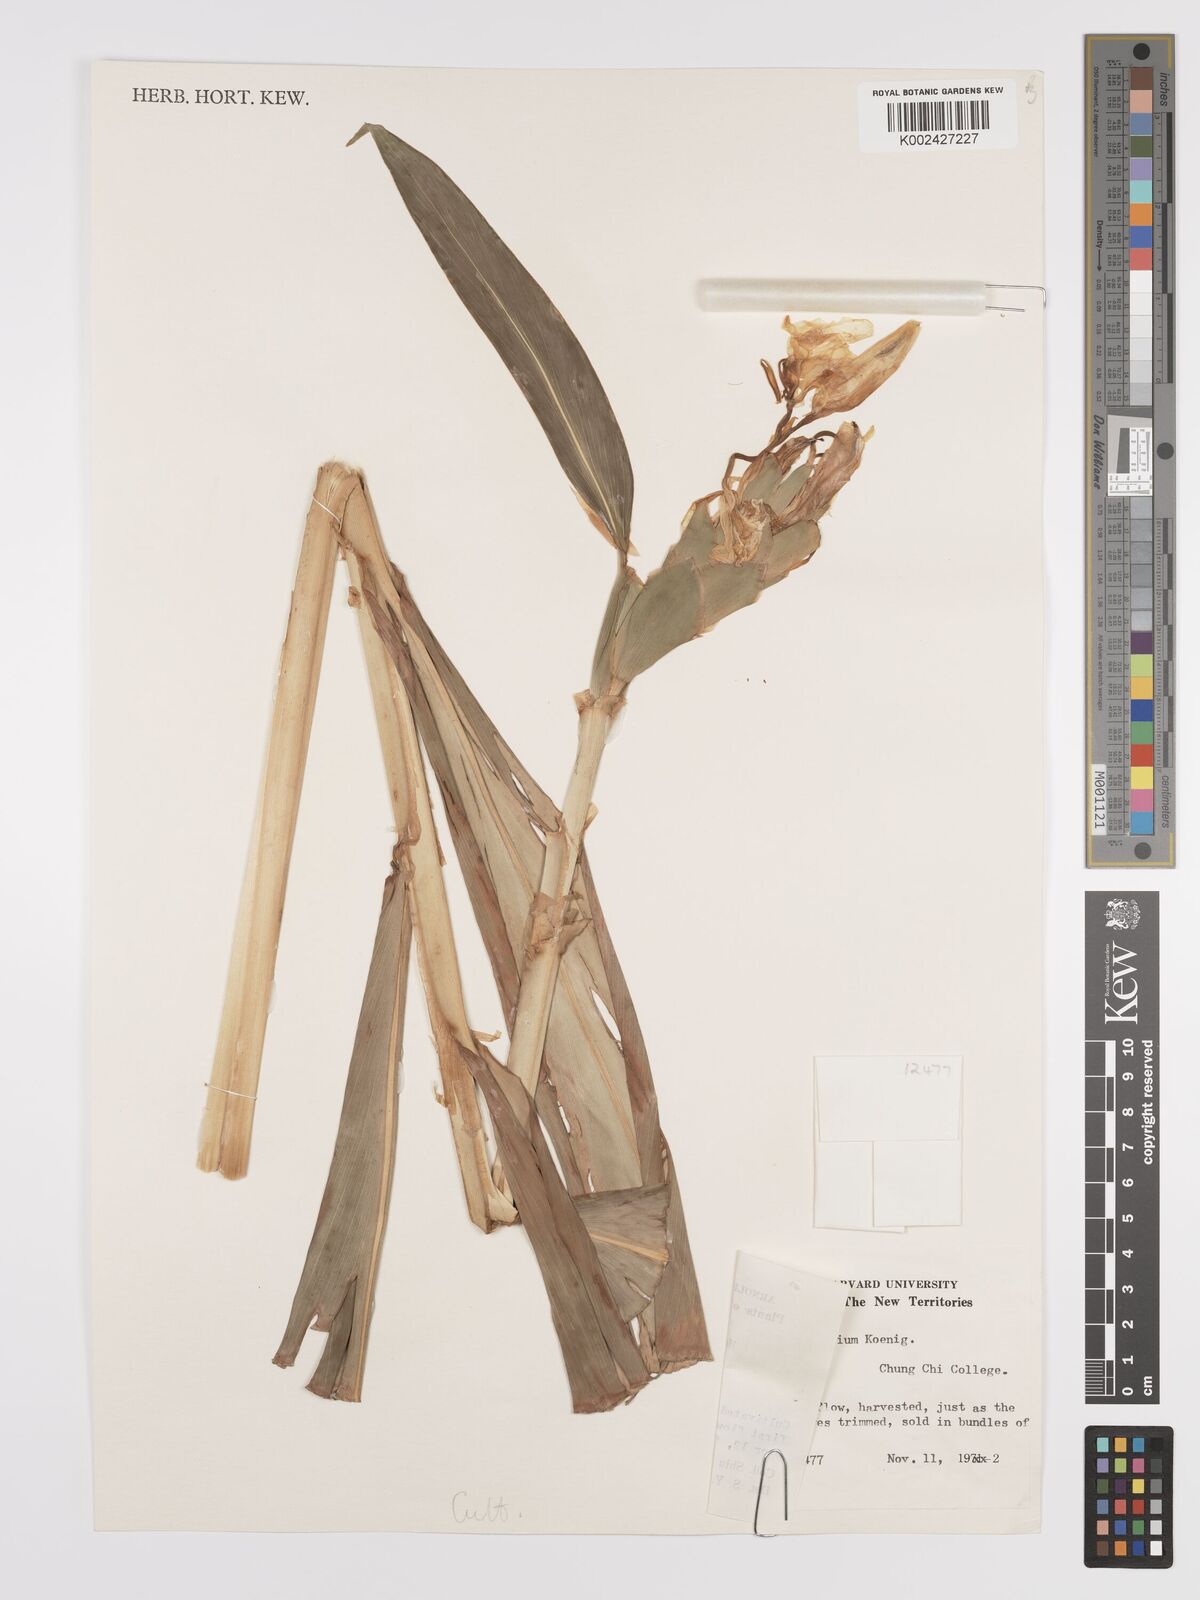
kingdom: Plantae
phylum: Tracheophyta
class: Liliopsida
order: Zingiberales
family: Zingiberaceae
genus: Hedychium
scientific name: Hedychium coronarium
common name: White garland-lily
